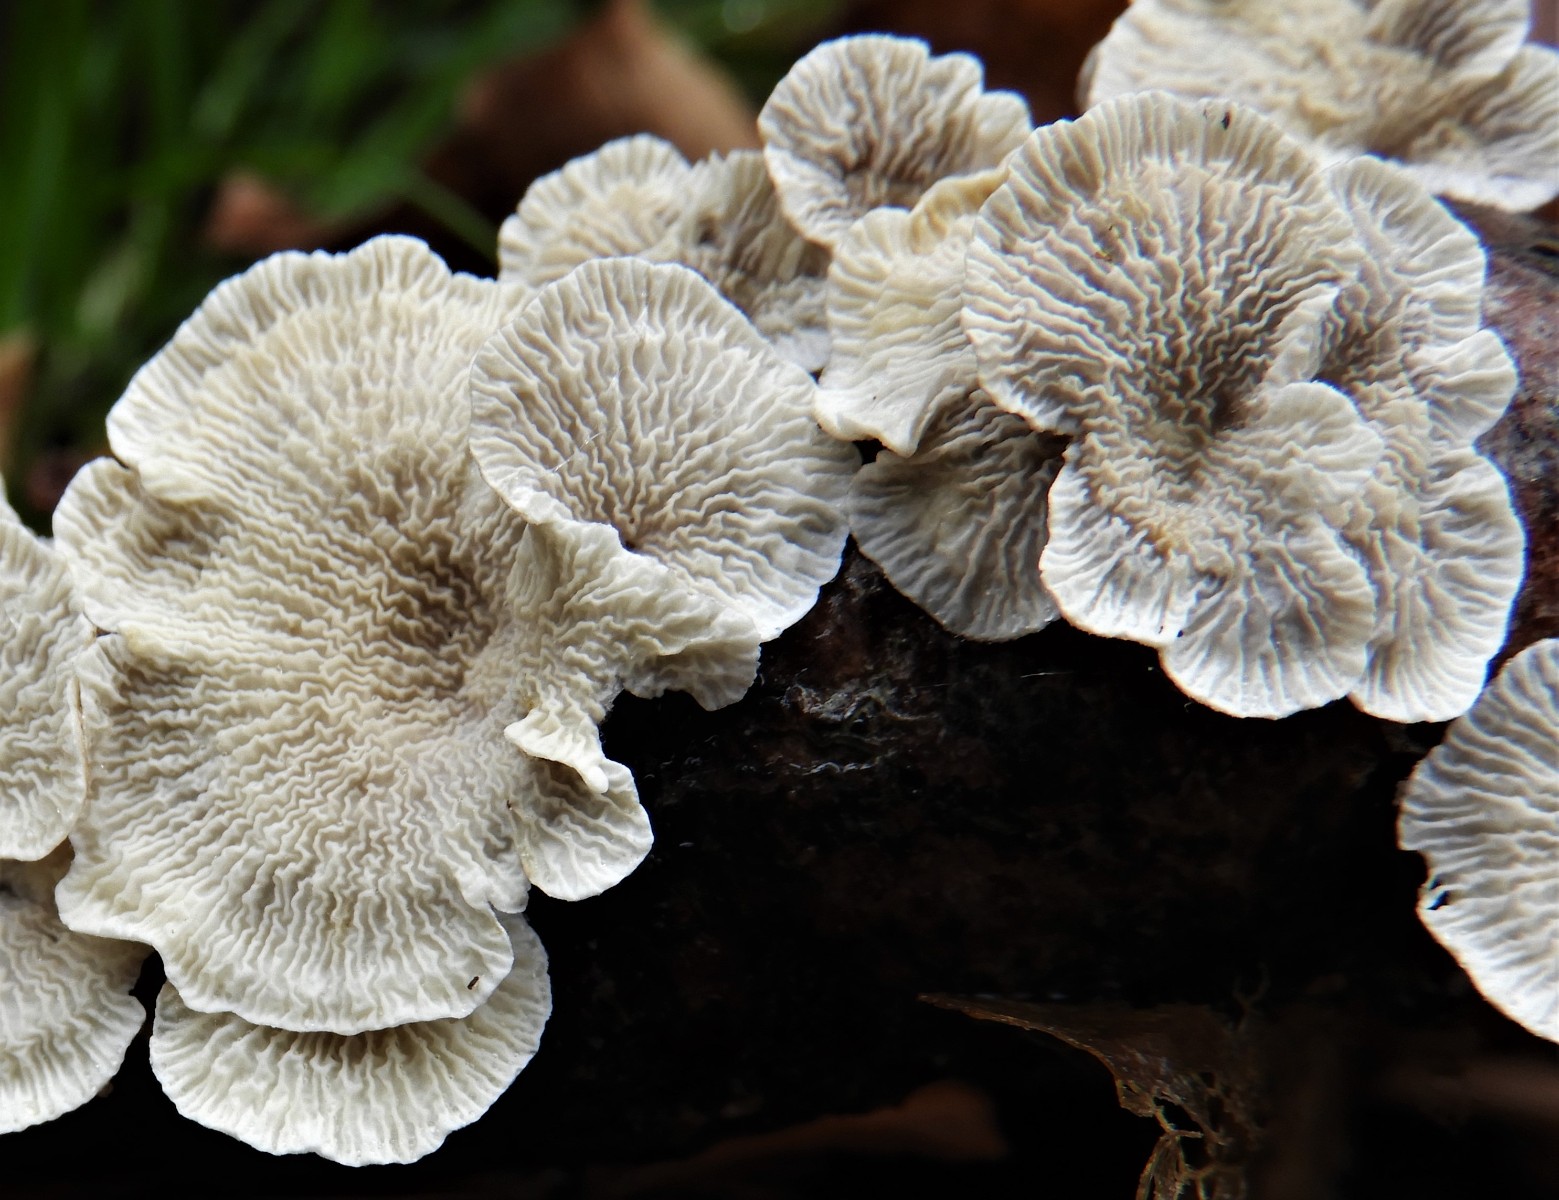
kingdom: Fungi
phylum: Basidiomycota
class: Agaricomycetes
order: Amylocorticiales
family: Amylocorticiaceae
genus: Plicaturopsis
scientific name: Plicaturopsis crispa
